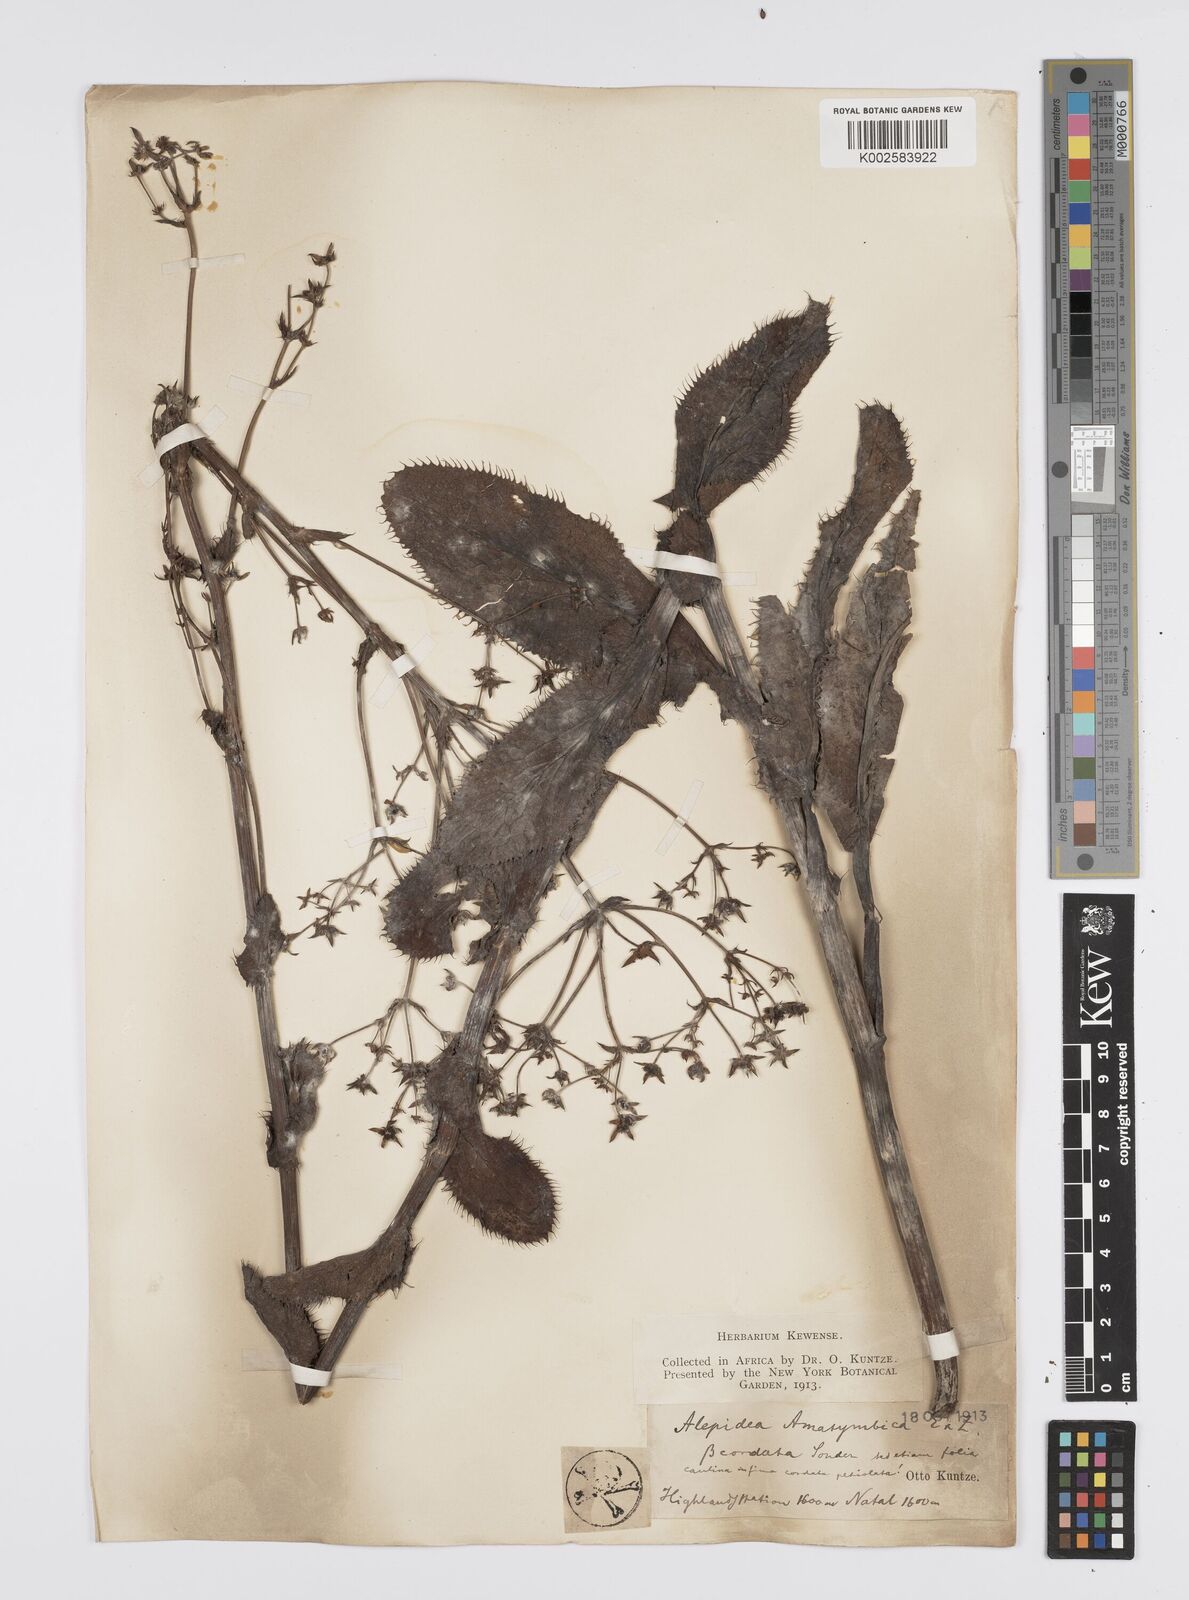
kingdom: Plantae
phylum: Tracheophyta
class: Magnoliopsida
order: Apiales
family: Apiaceae
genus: Alepidea
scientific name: Alepidea amatymbica
